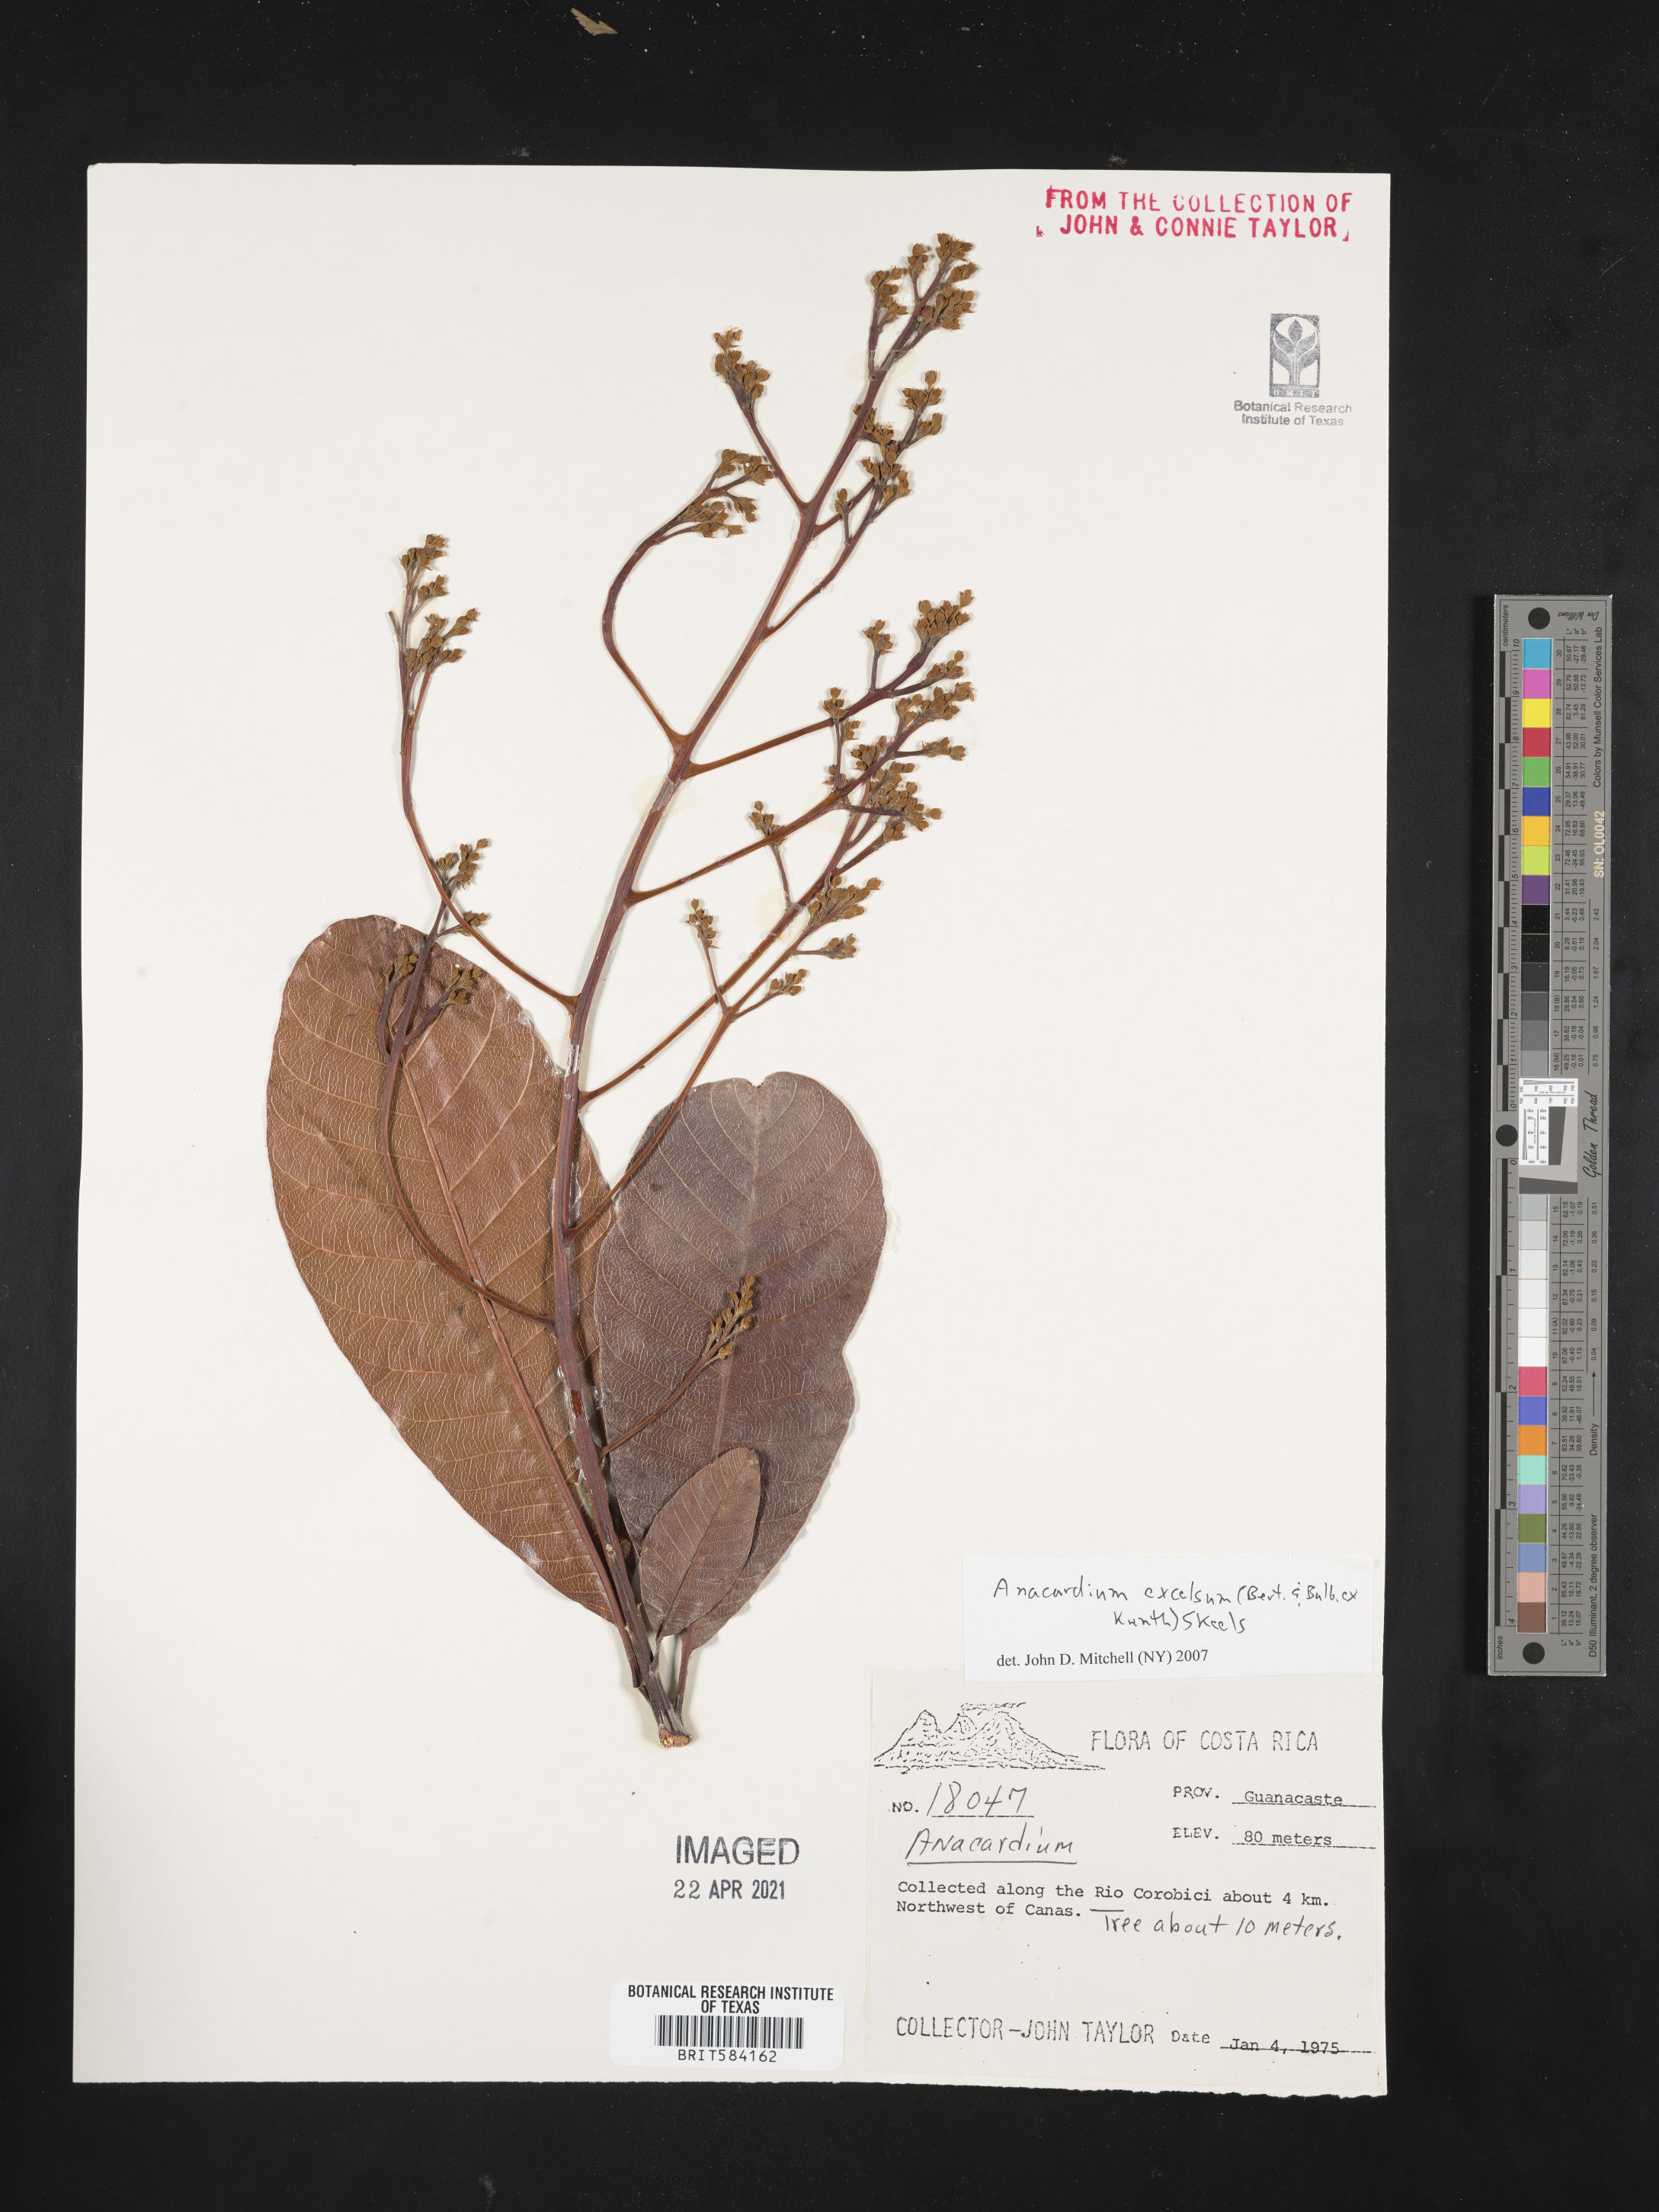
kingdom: Plantae
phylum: Tracheophyta
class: Magnoliopsida
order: Sapindales
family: Anacardiaceae
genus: Anacardium
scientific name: Anacardium excelsum
